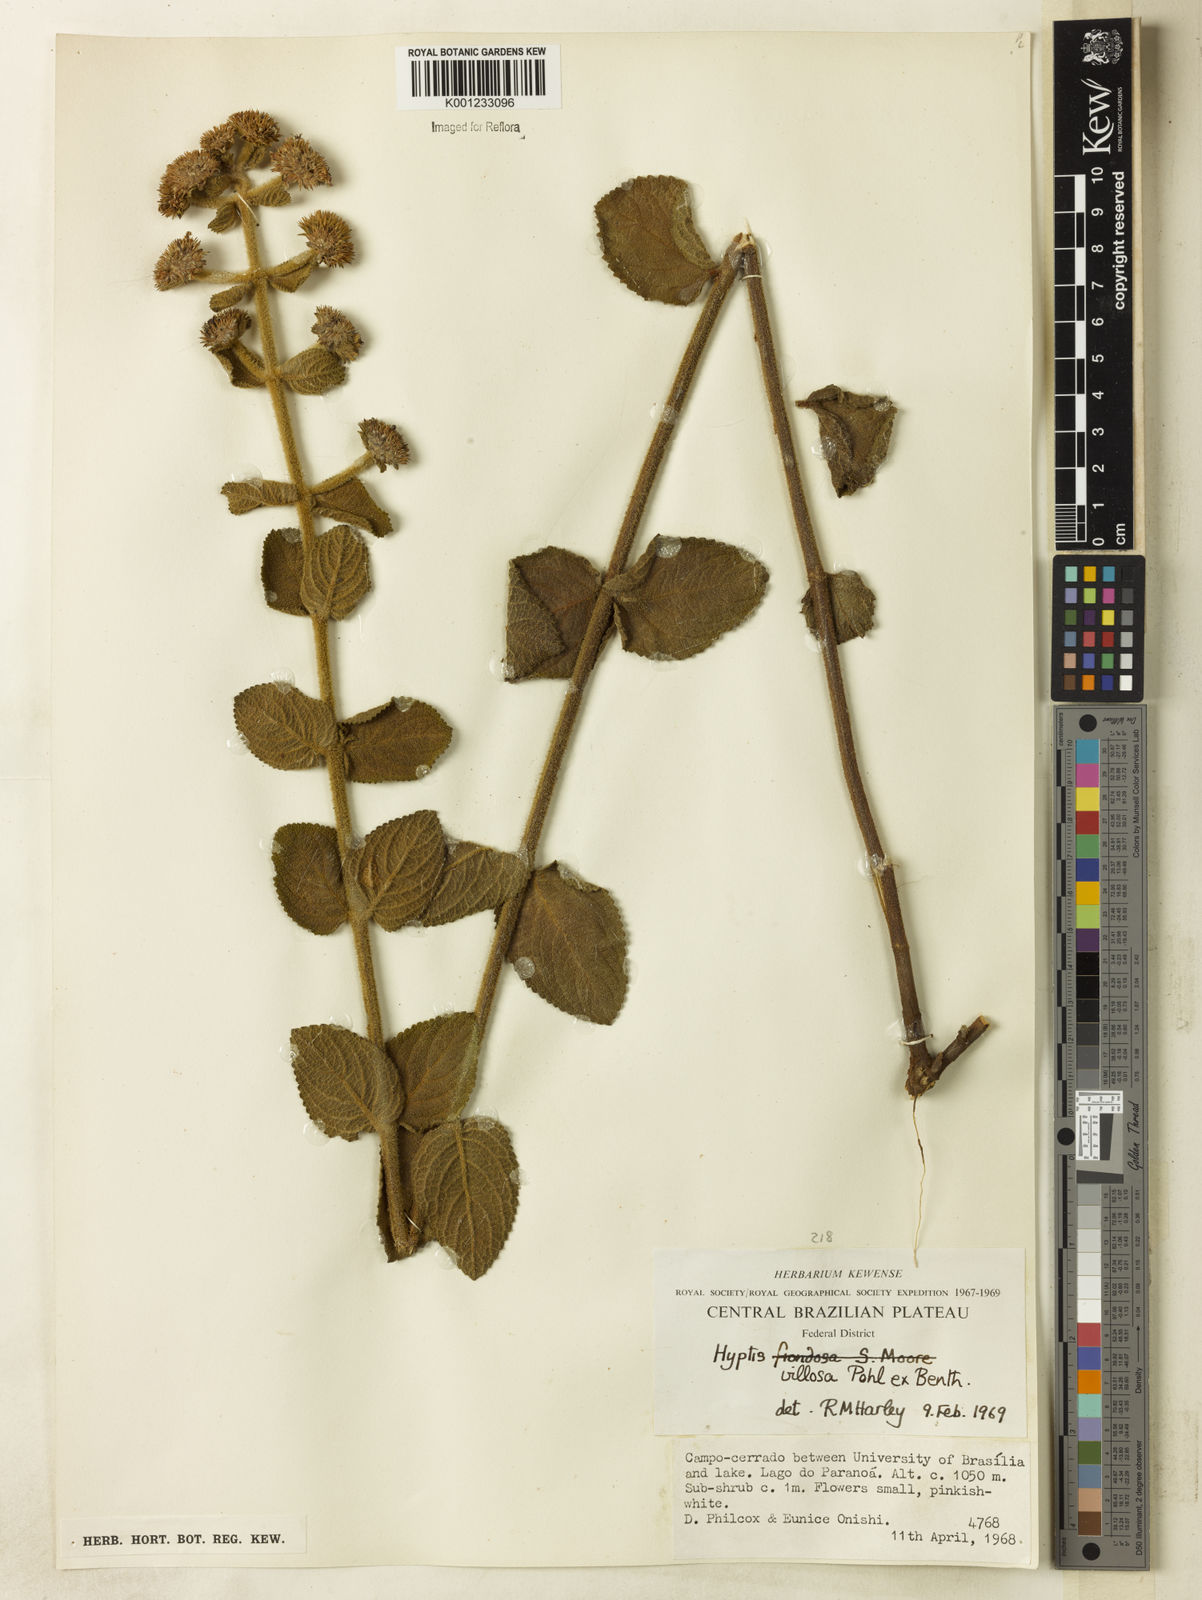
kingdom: Plantae
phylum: Tracheophyta
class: Magnoliopsida
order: Lamiales
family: Lamiaceae
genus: Hyptis
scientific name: Hyptis villosa
